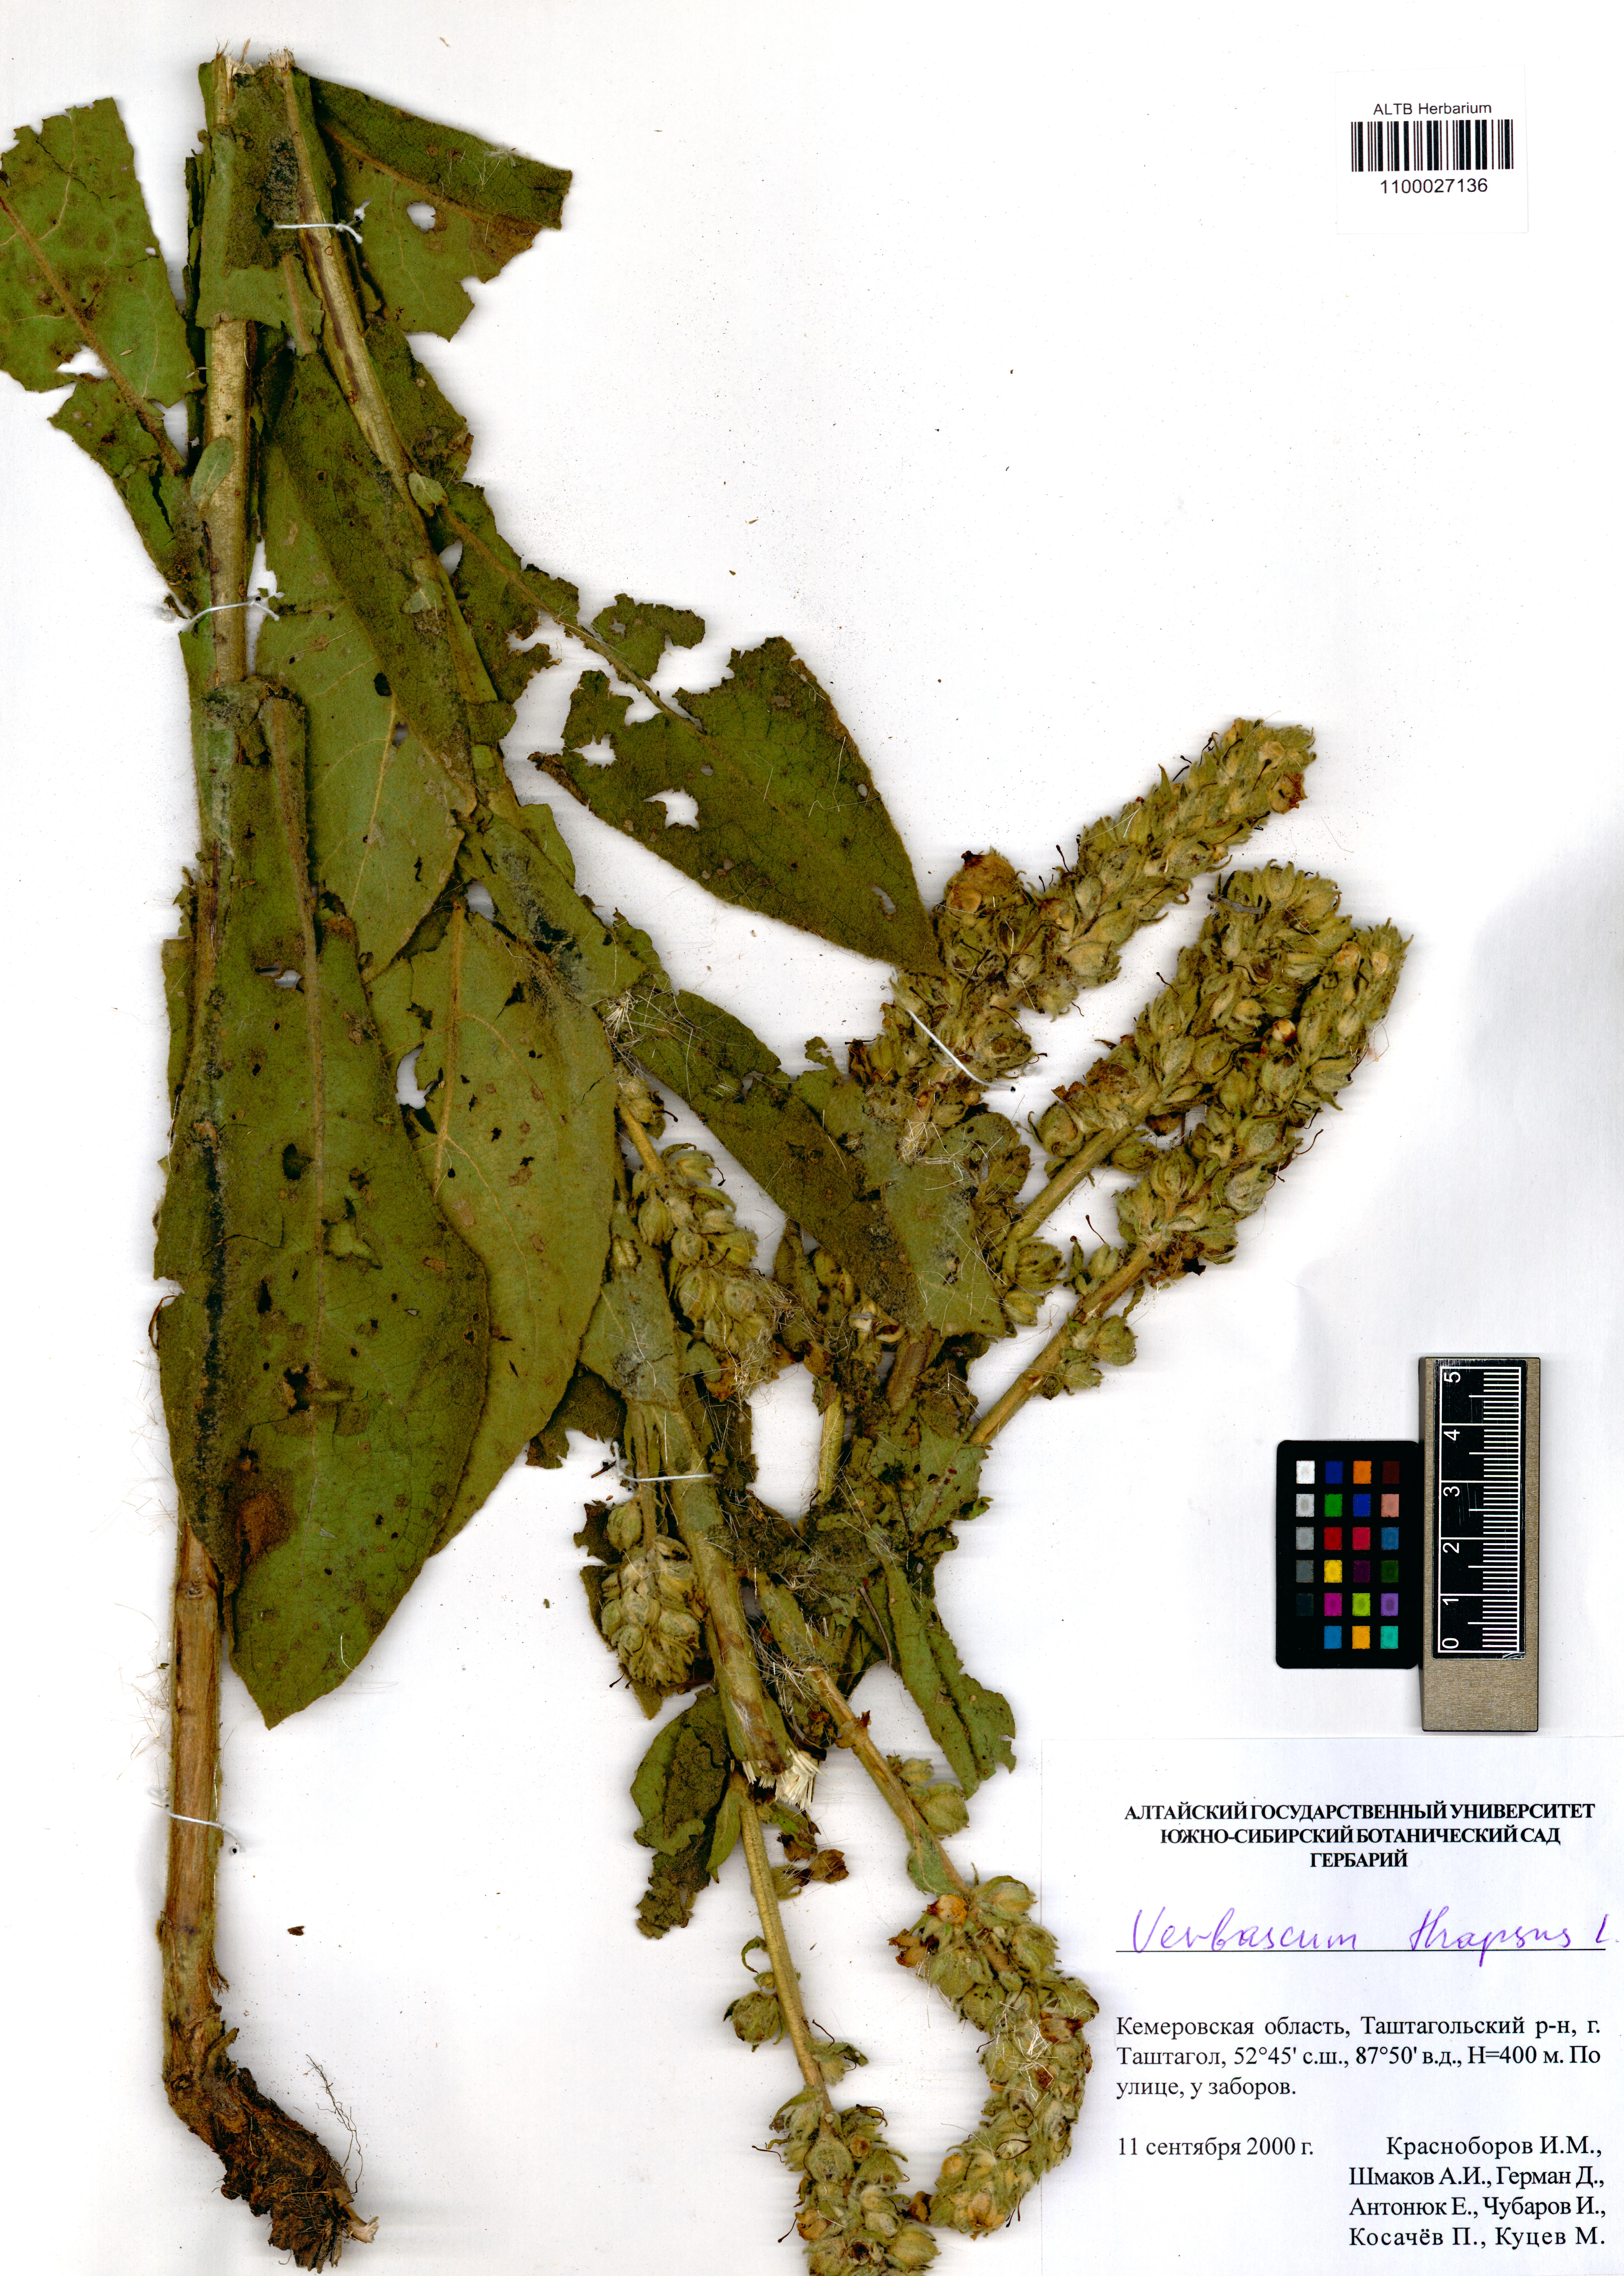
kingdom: Plantae
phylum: Tracheophyta
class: Magnoliopsida
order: Lamiales
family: Scrophulariaceae
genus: Verbascum
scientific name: Verbascum thapsus
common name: Common mullein
